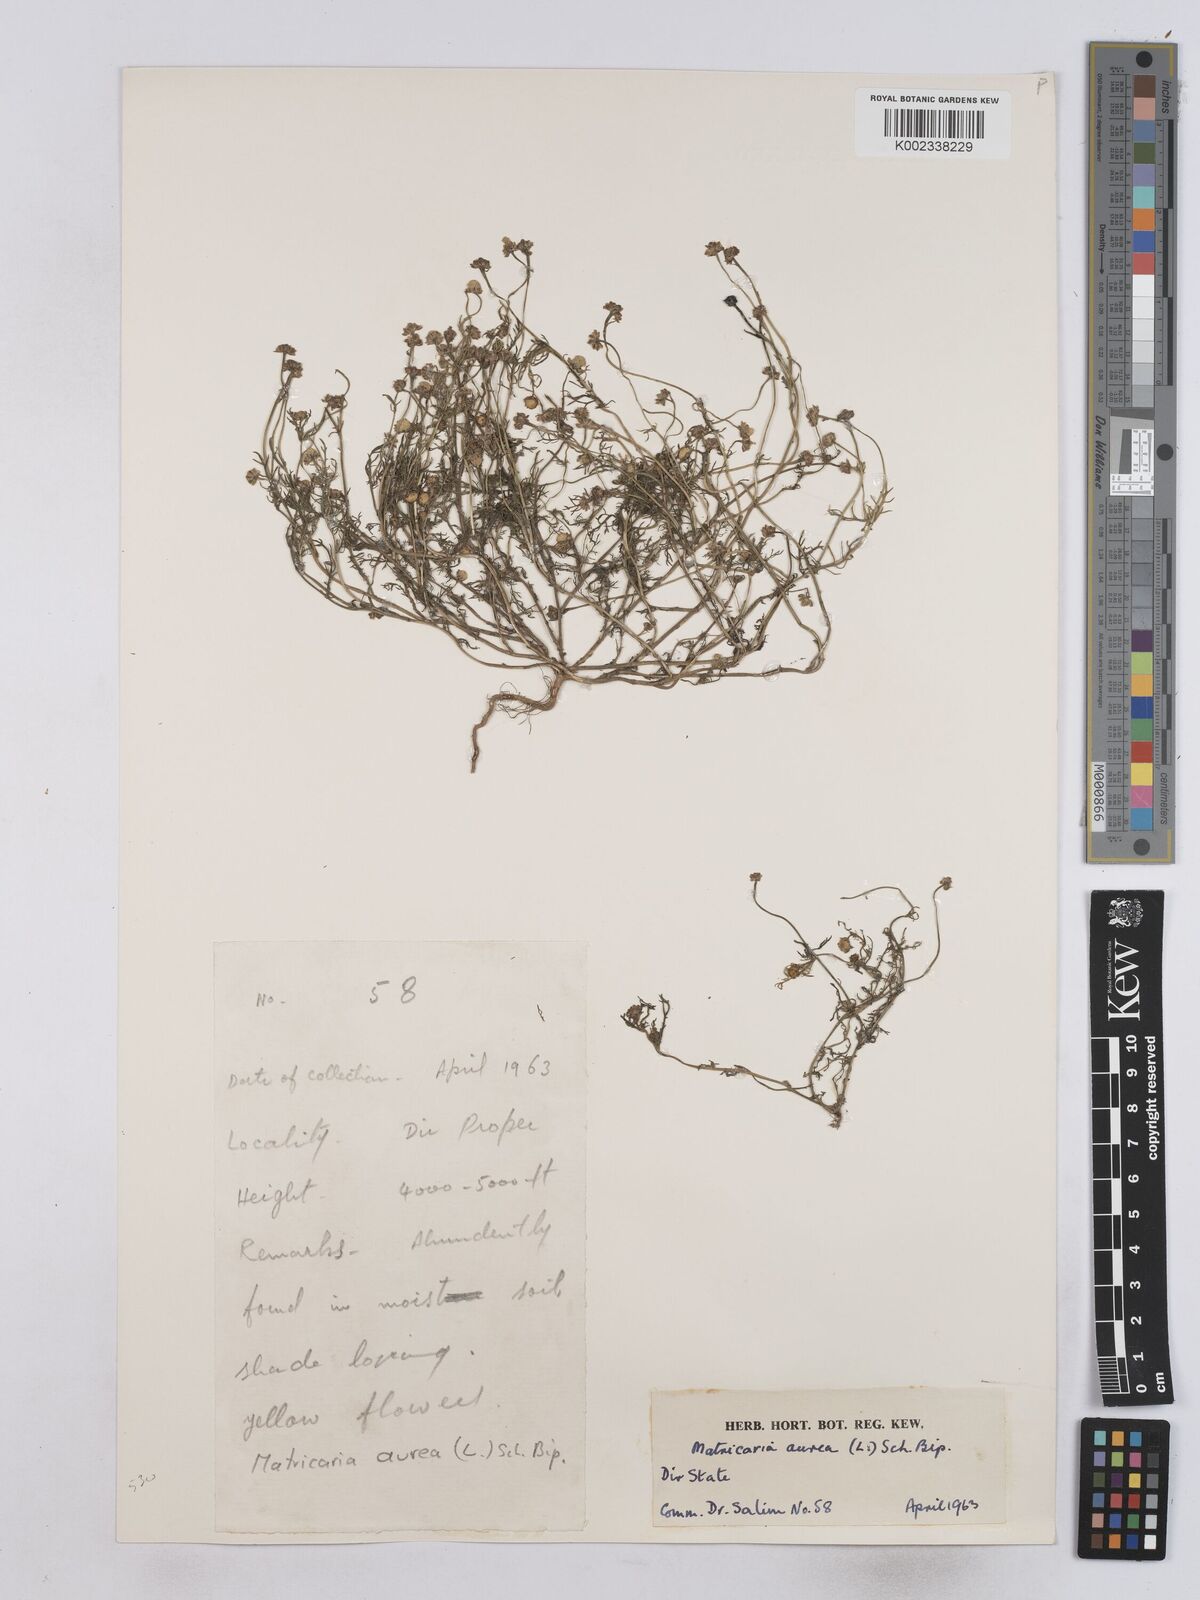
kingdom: Plantae
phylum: Tracheophyta
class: Magnoliopsida
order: Asterales
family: Asteraceae
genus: Matricaria
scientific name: Matricaria aurea
